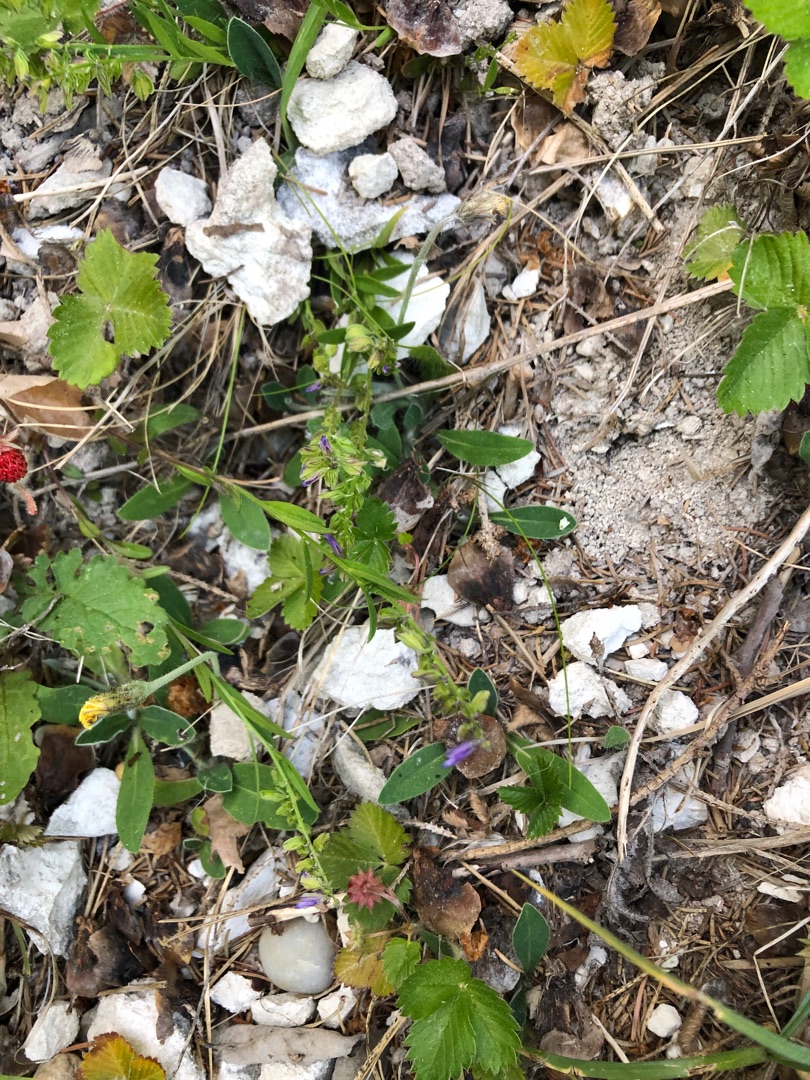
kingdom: Plantae
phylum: Tracheophyta
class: Magnoliopsida
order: Fabales
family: Polygalaceae
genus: Polygala
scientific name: Polygala vulgaris
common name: Almindelig mælkeurt
